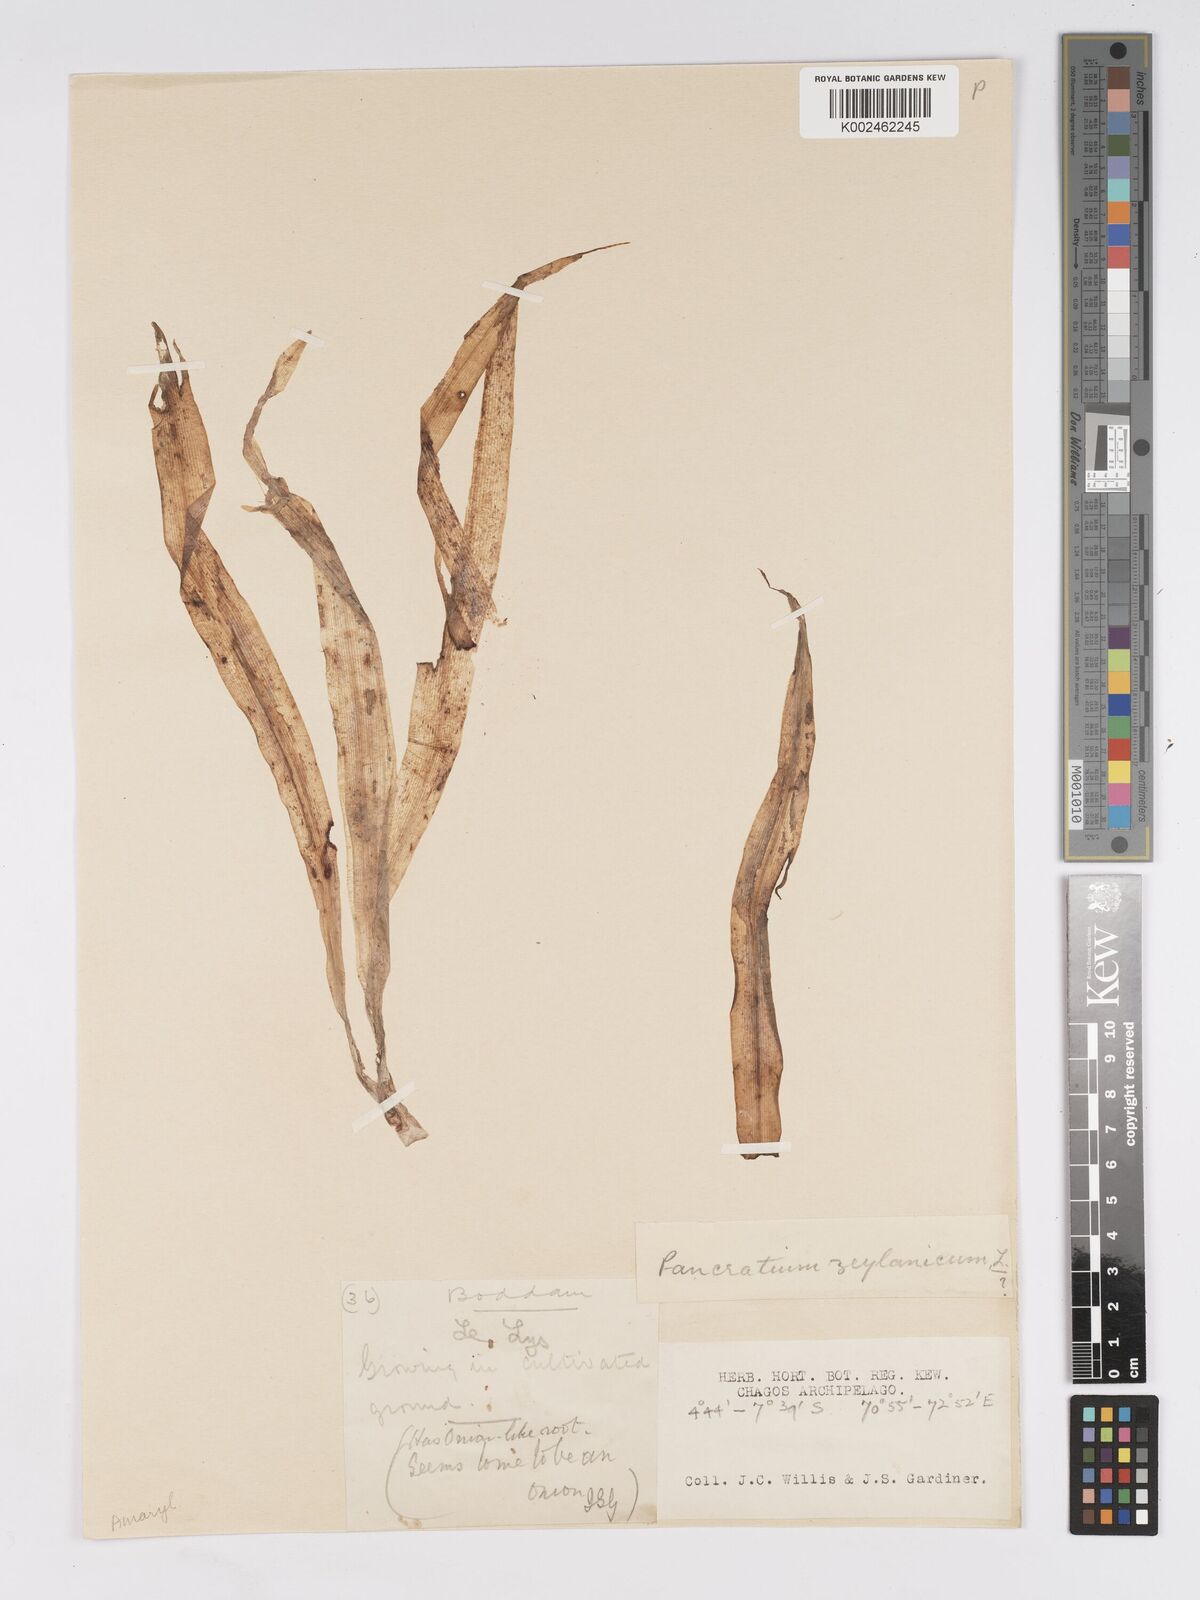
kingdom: Plantae
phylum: Tracheophyta
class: Liliopsida
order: Asparagales
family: Amaryllidaceae
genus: Pancratium
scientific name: Pancratium zeylanicum
